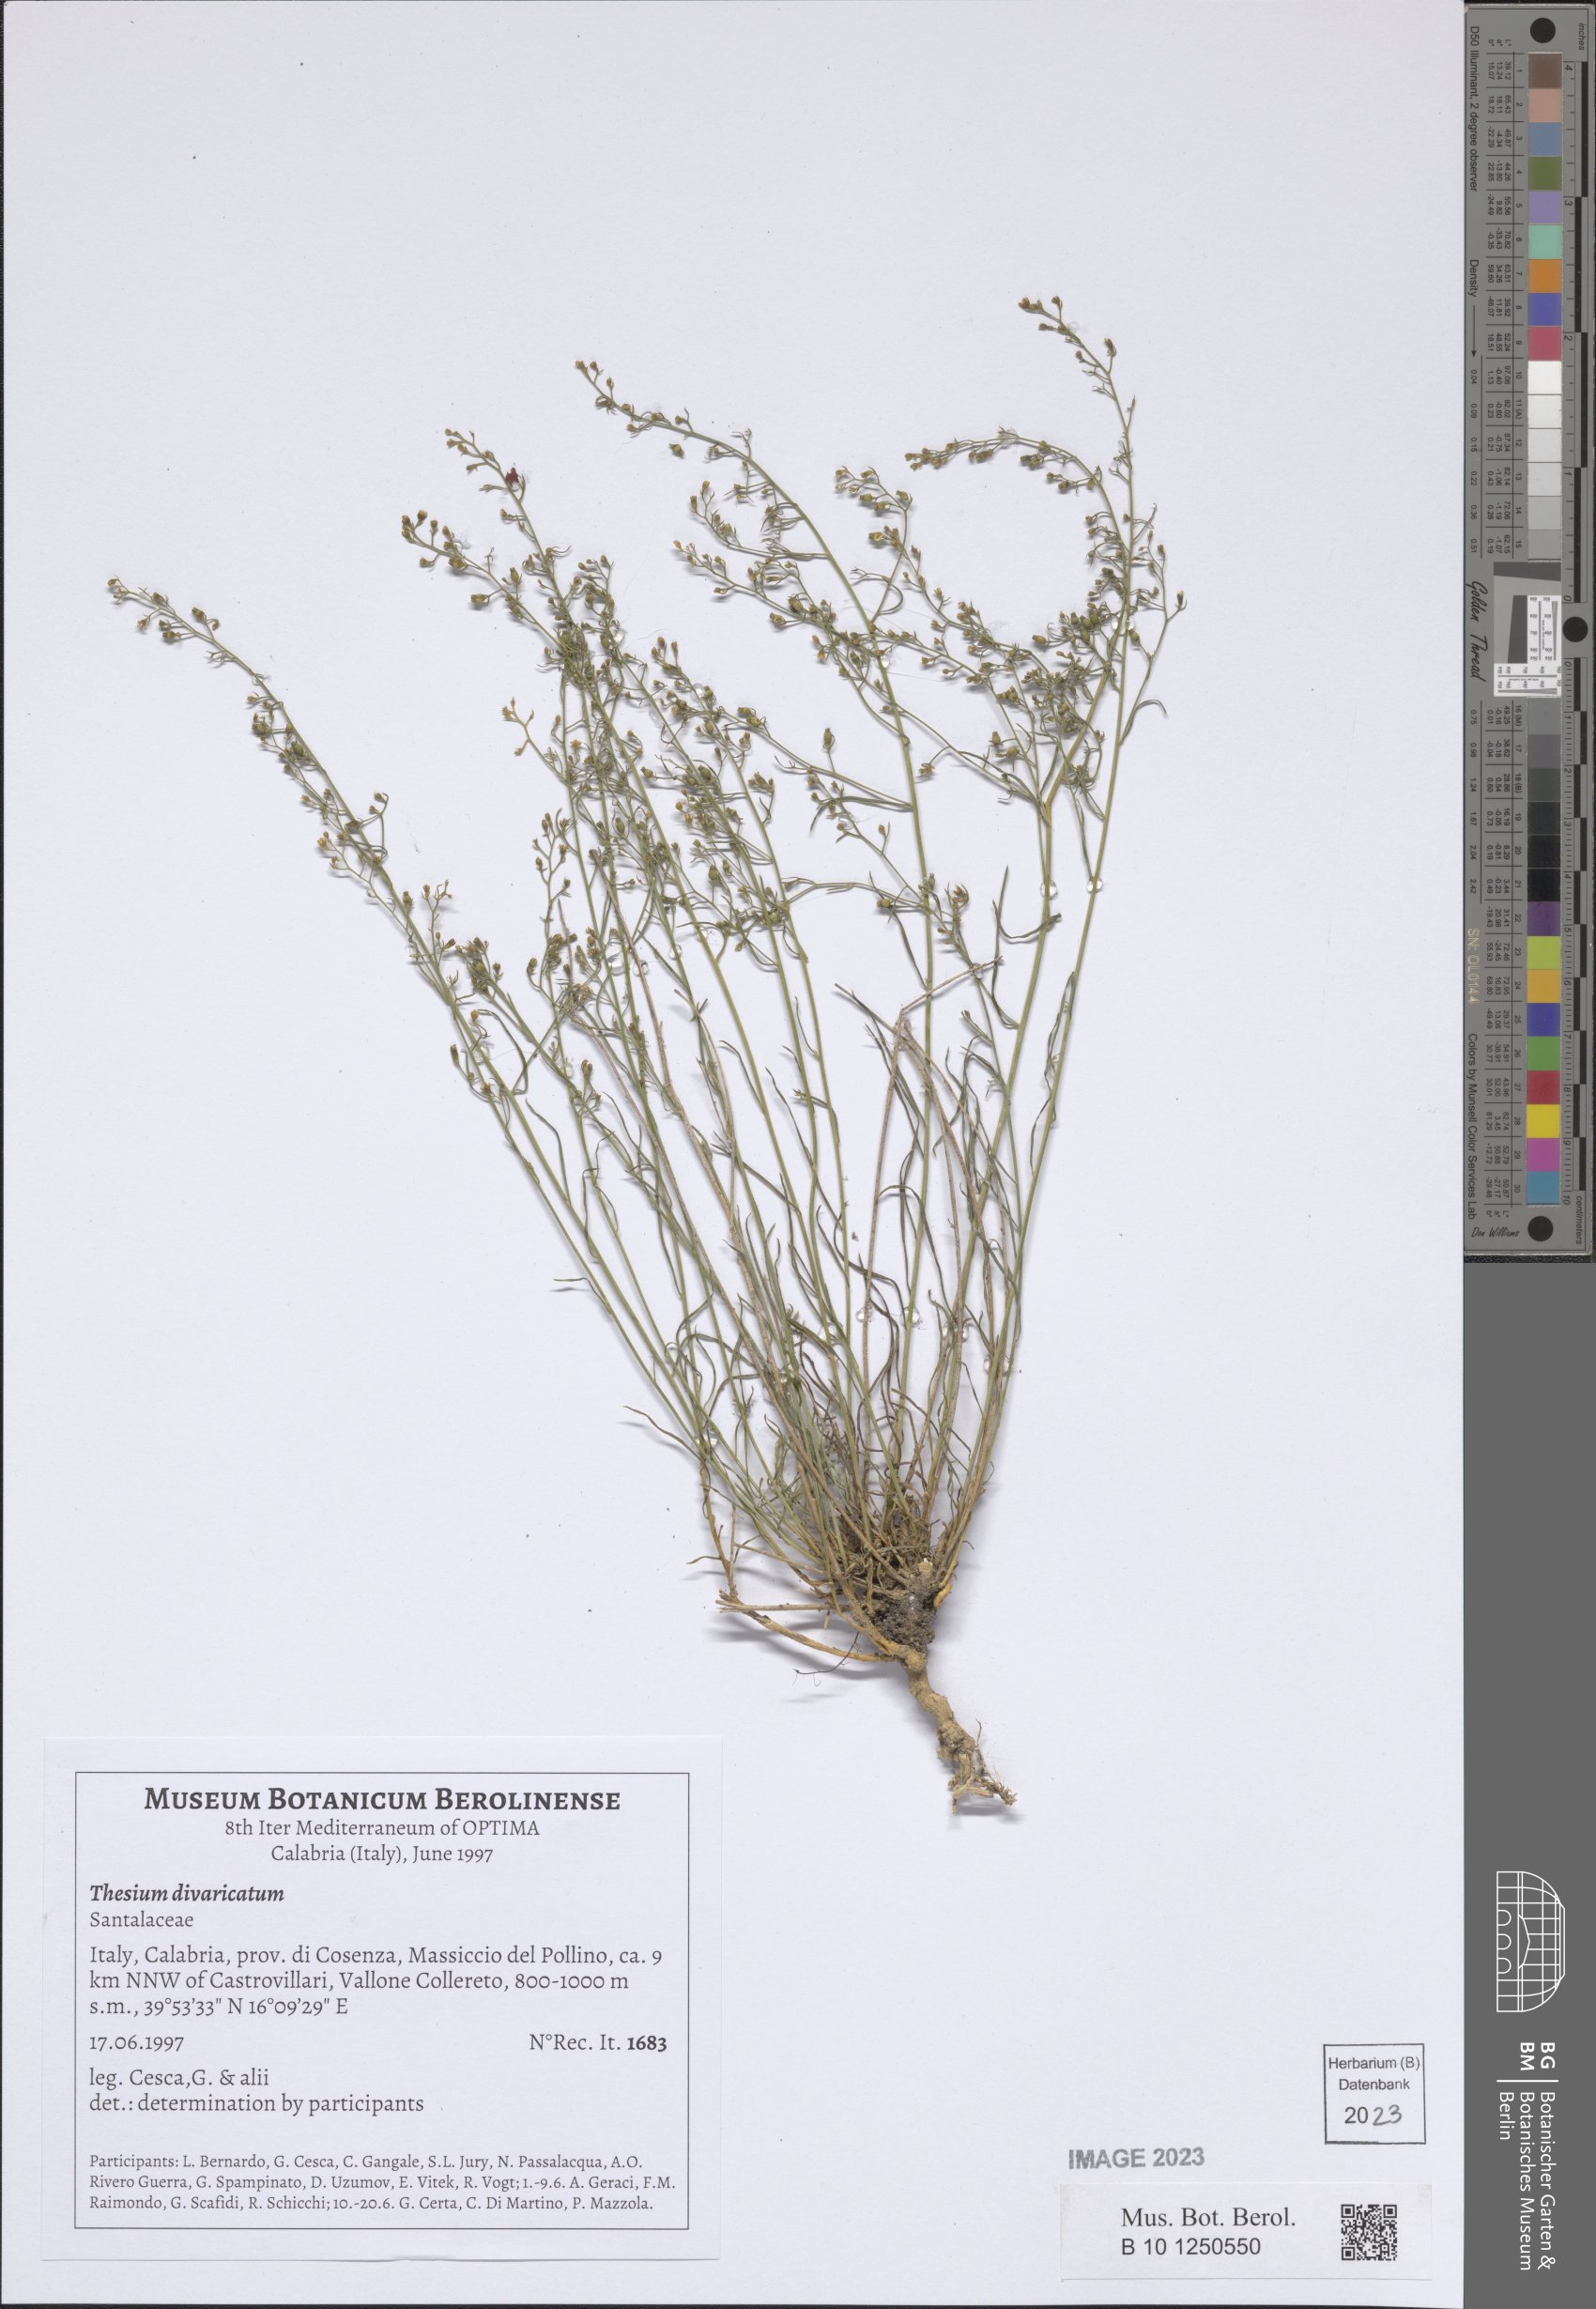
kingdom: Plantae
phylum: Tracheophyta
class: Magnoliopsida
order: Santalales
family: Thesiaceae
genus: Thesium
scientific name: Thesium divaricatum
